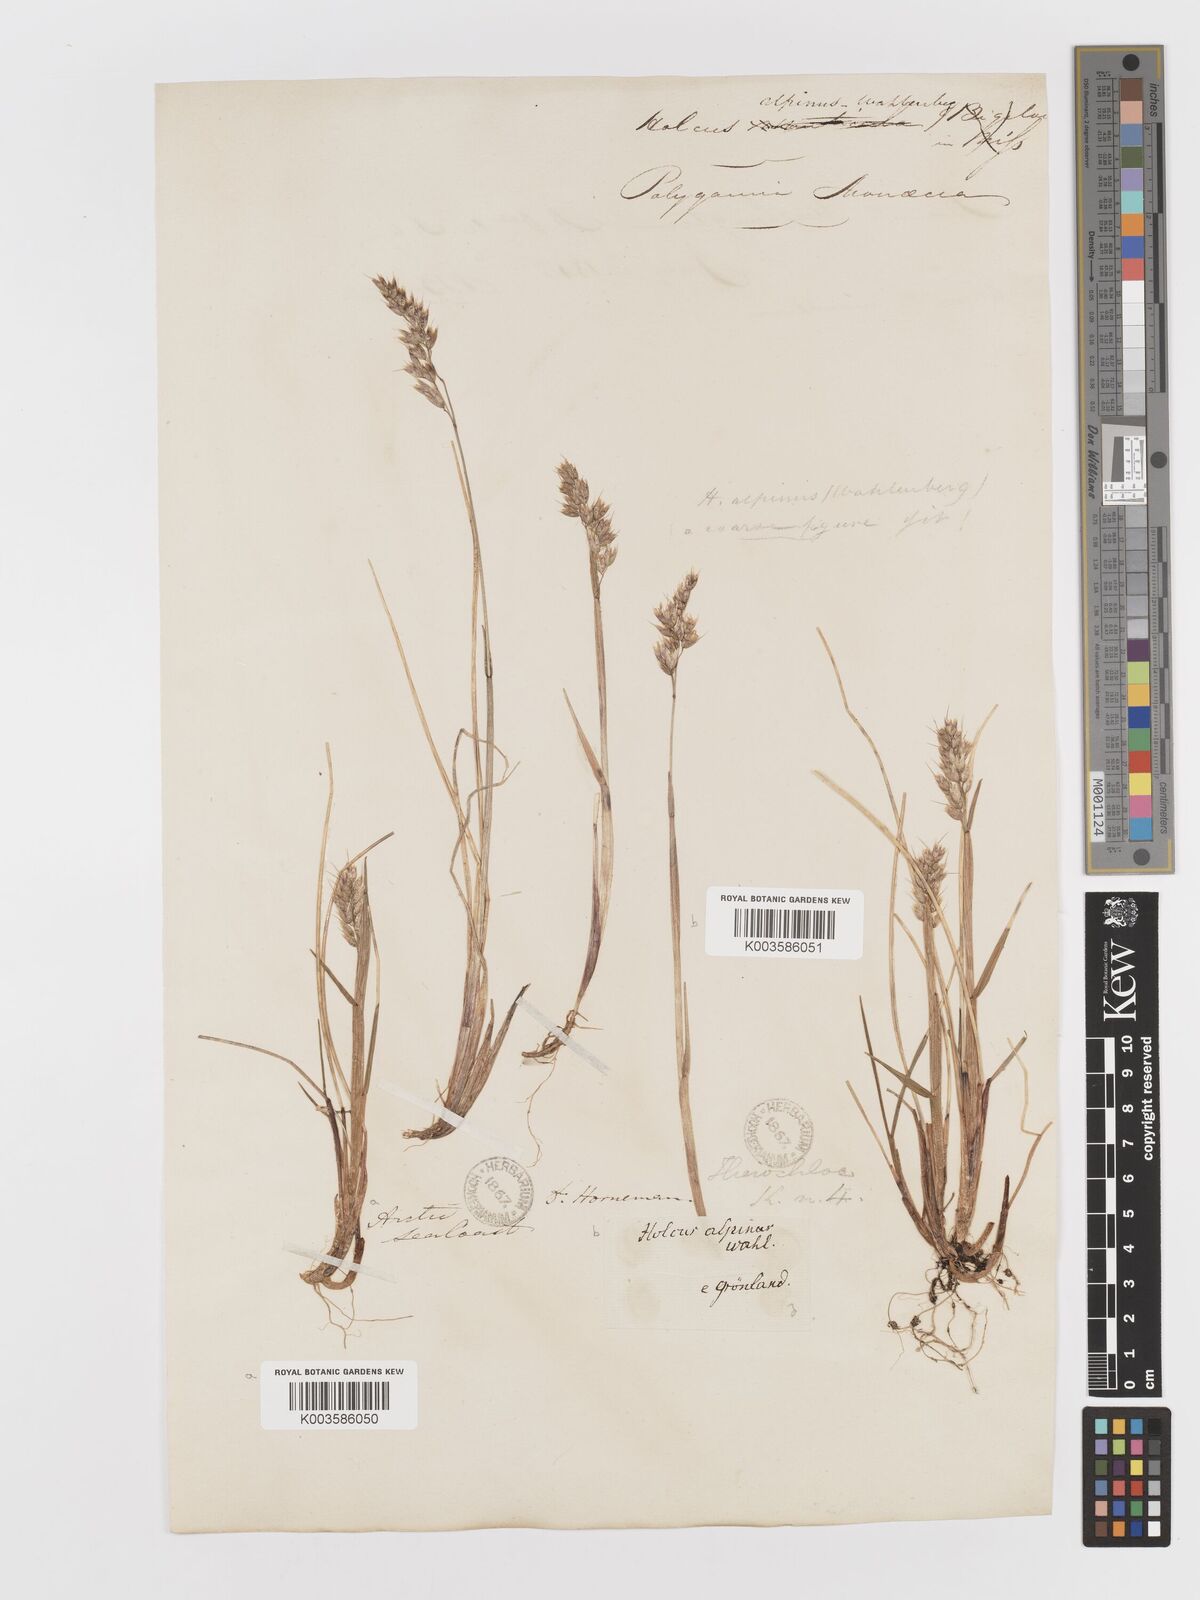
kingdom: Plantae
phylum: Tracheophyta
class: Liliopsida
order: Poales
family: Poaceae
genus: Anthoxanthum
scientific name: Anthoxanthum monticola
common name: Alpine sweetgrass
